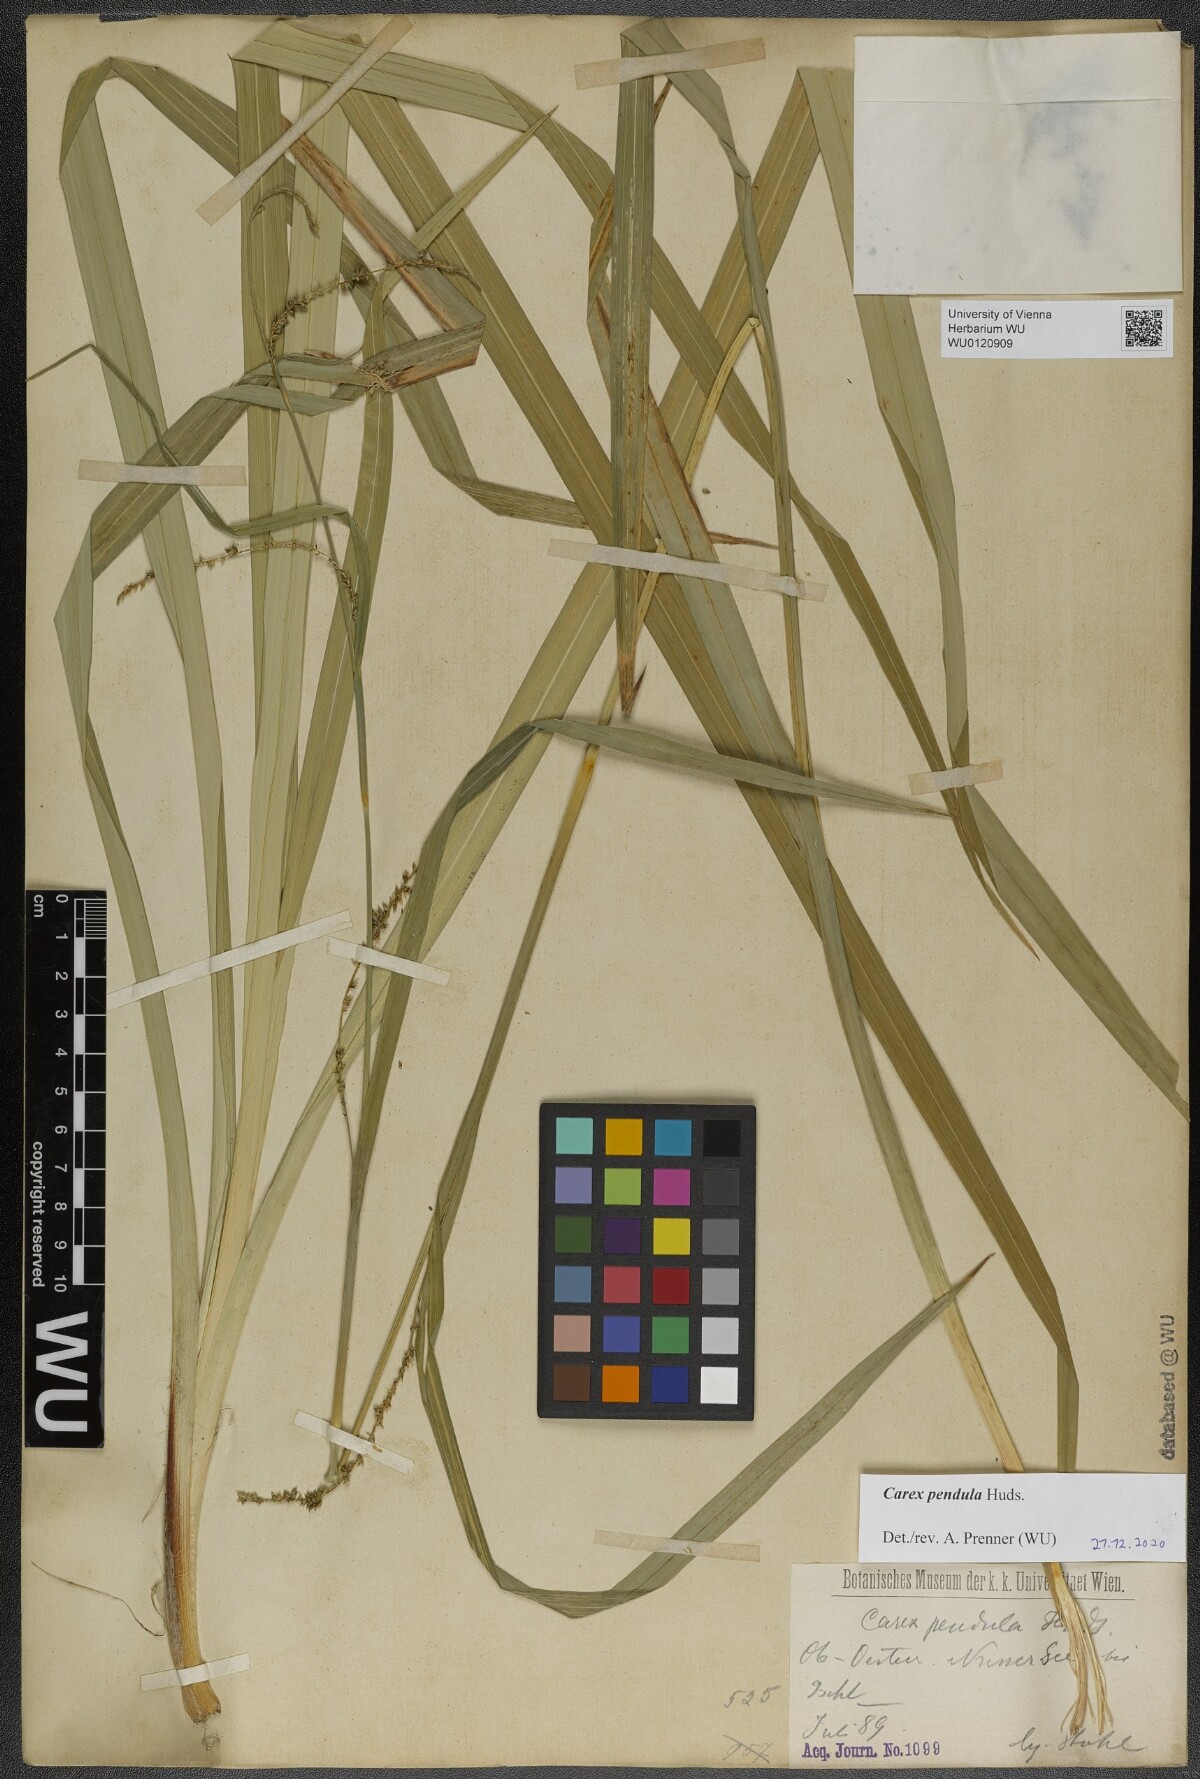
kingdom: Plantae
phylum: Tracheophyta
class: Liliopsida
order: Poales
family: Cyperaceae
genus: Carex
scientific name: Carex agastachys
